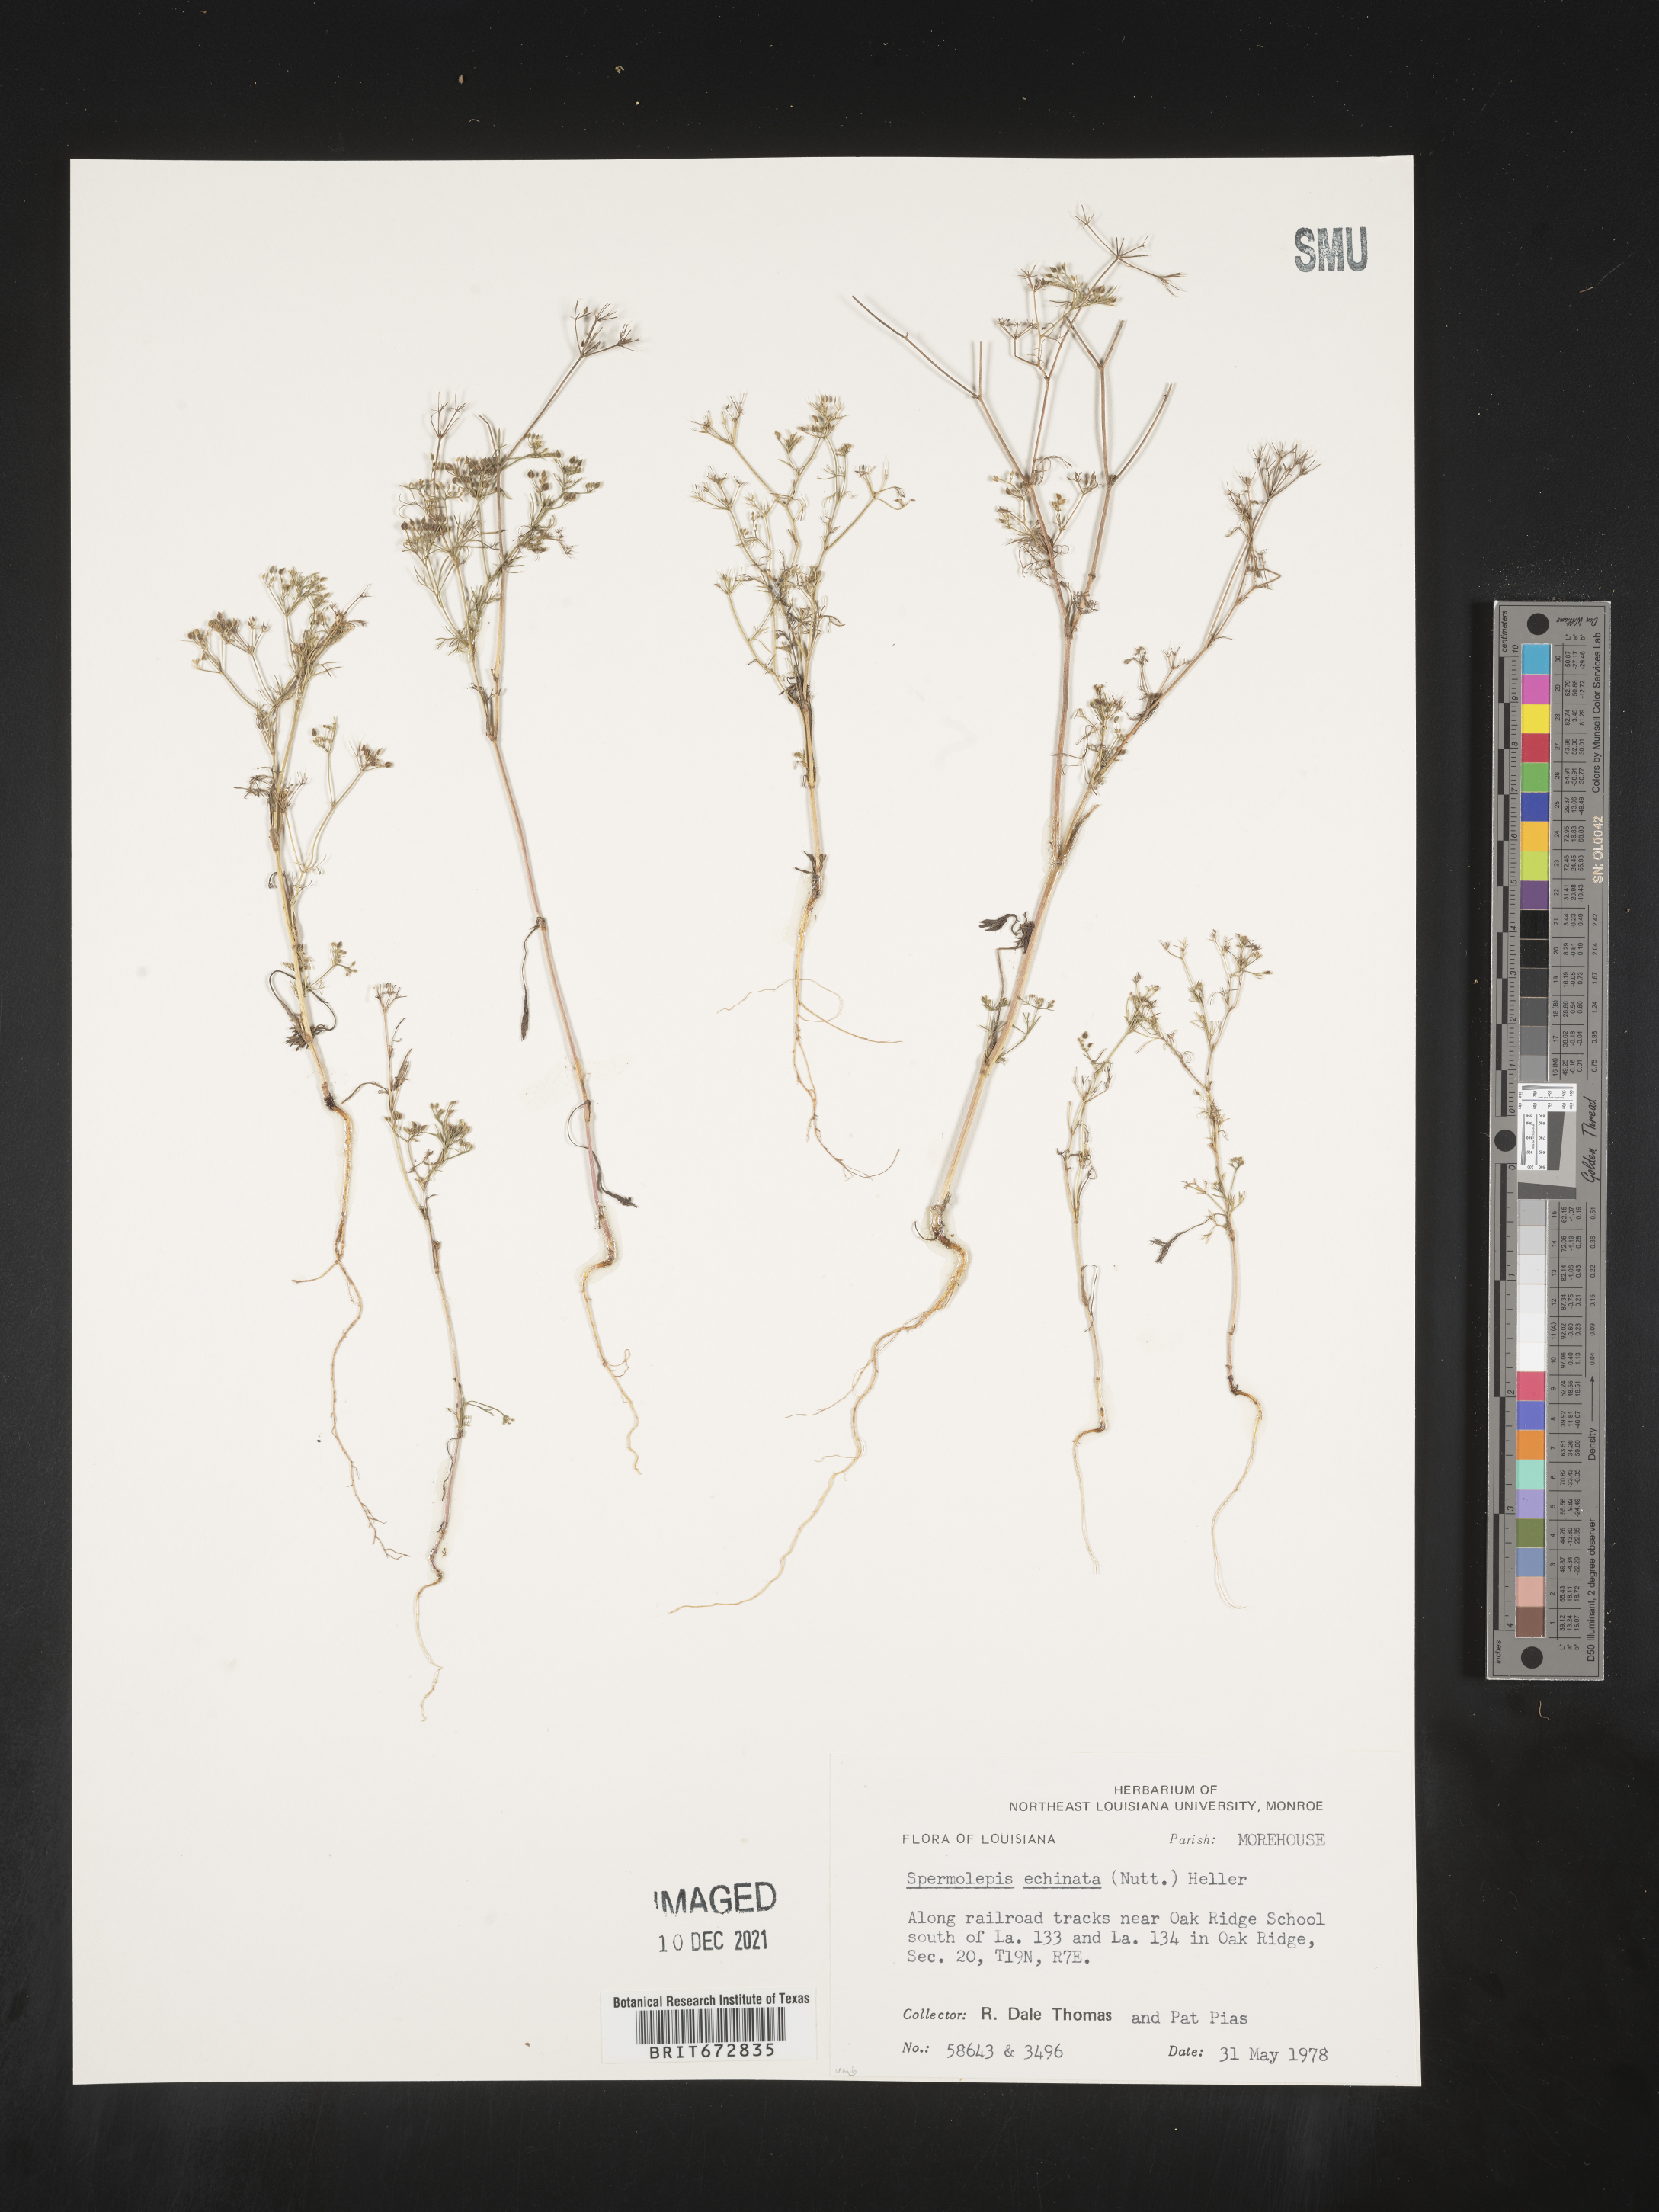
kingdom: Plantae
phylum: Tracheophyta
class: Magnoliopsida
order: Apiales
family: Apiaceae
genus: Spermolepis
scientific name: Spermolepis echinata
